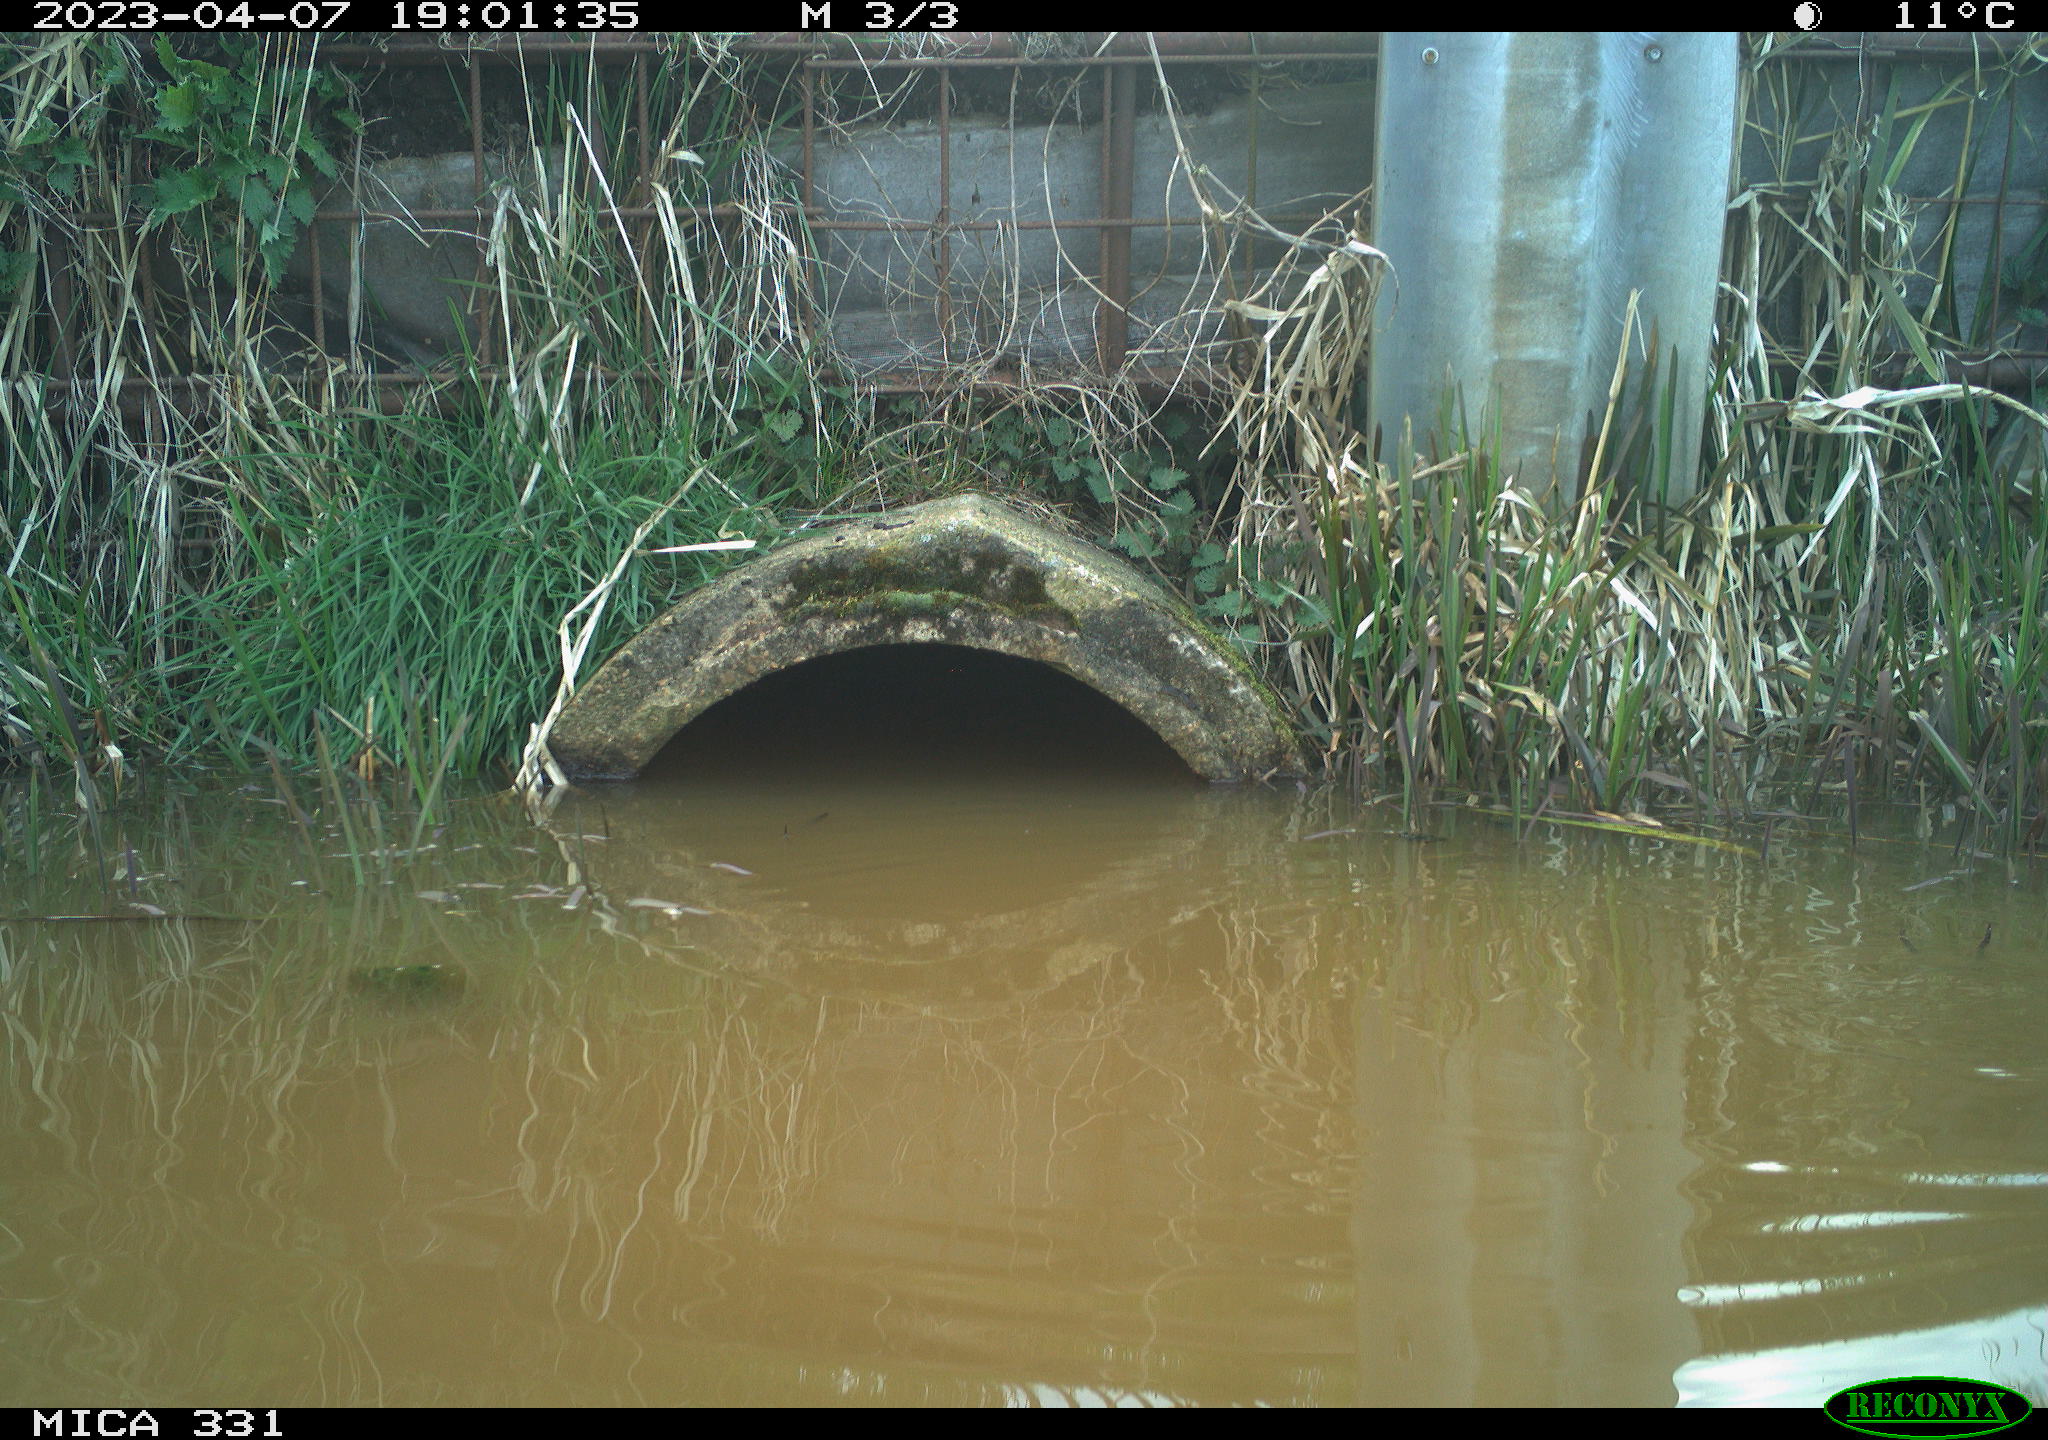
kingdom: Animalia
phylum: Chordata
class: Aves
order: Gruiformes
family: Rallidae
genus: Fulica
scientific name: Fulica atra
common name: Eurasian coot
